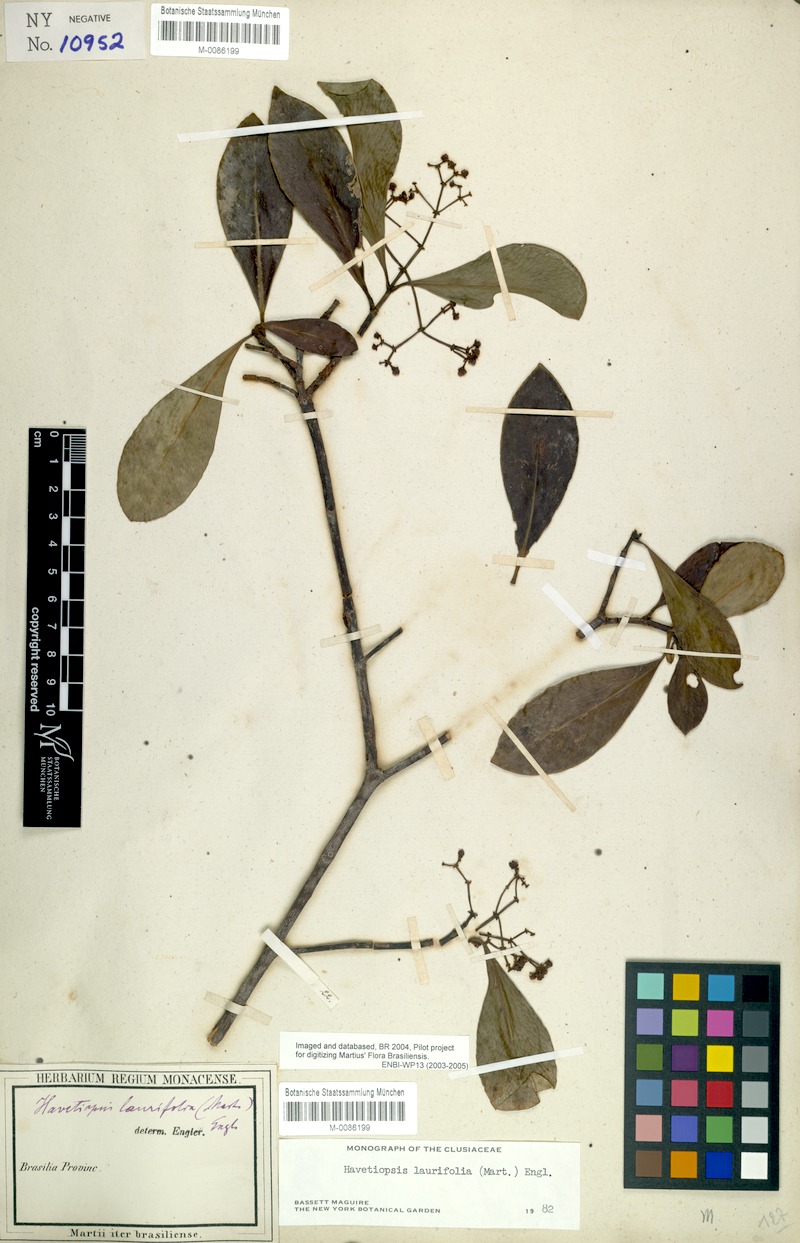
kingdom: Plantae
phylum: Tracheophyta
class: Magnoliopsida
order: Malpighiales
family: Clusiaceae
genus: Clusia
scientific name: Clusia flavida
